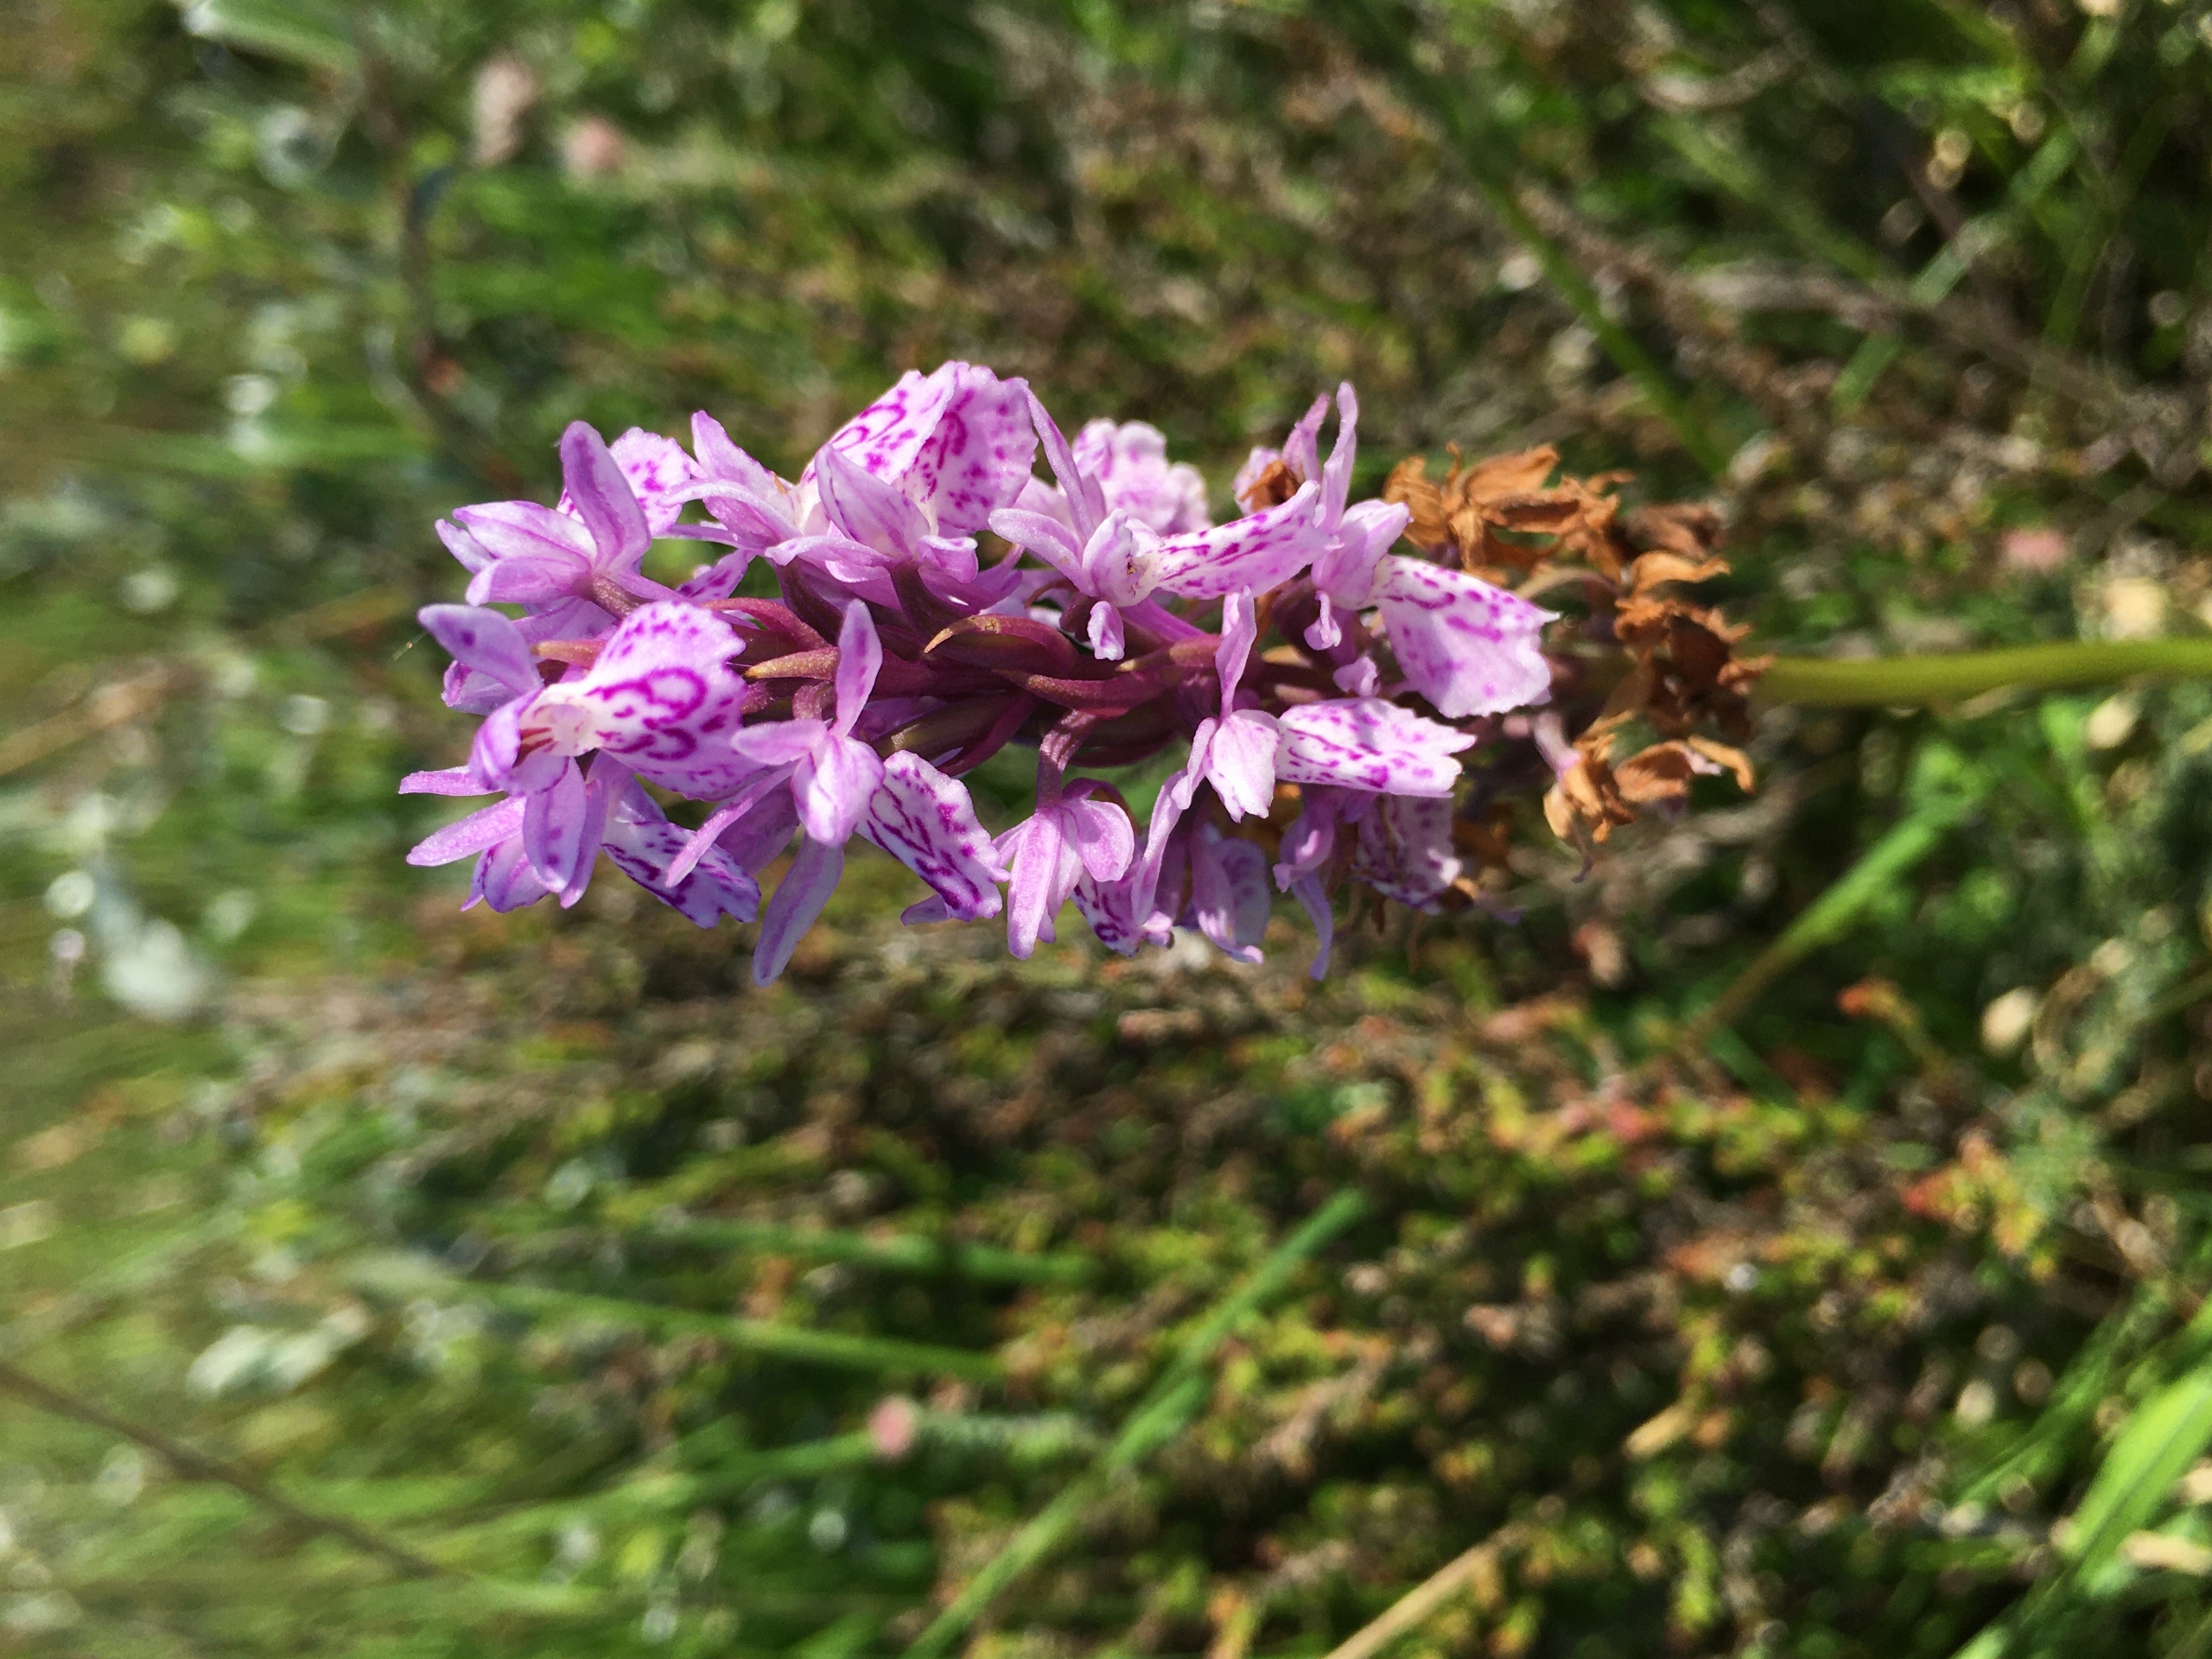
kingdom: Plantae
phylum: Tracheophyta
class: Liliopsida
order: Asparagales
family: Orchidaceae
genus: Dactylorhiza
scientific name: Dactylorhiza maculata
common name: Plettet gøgeurt
